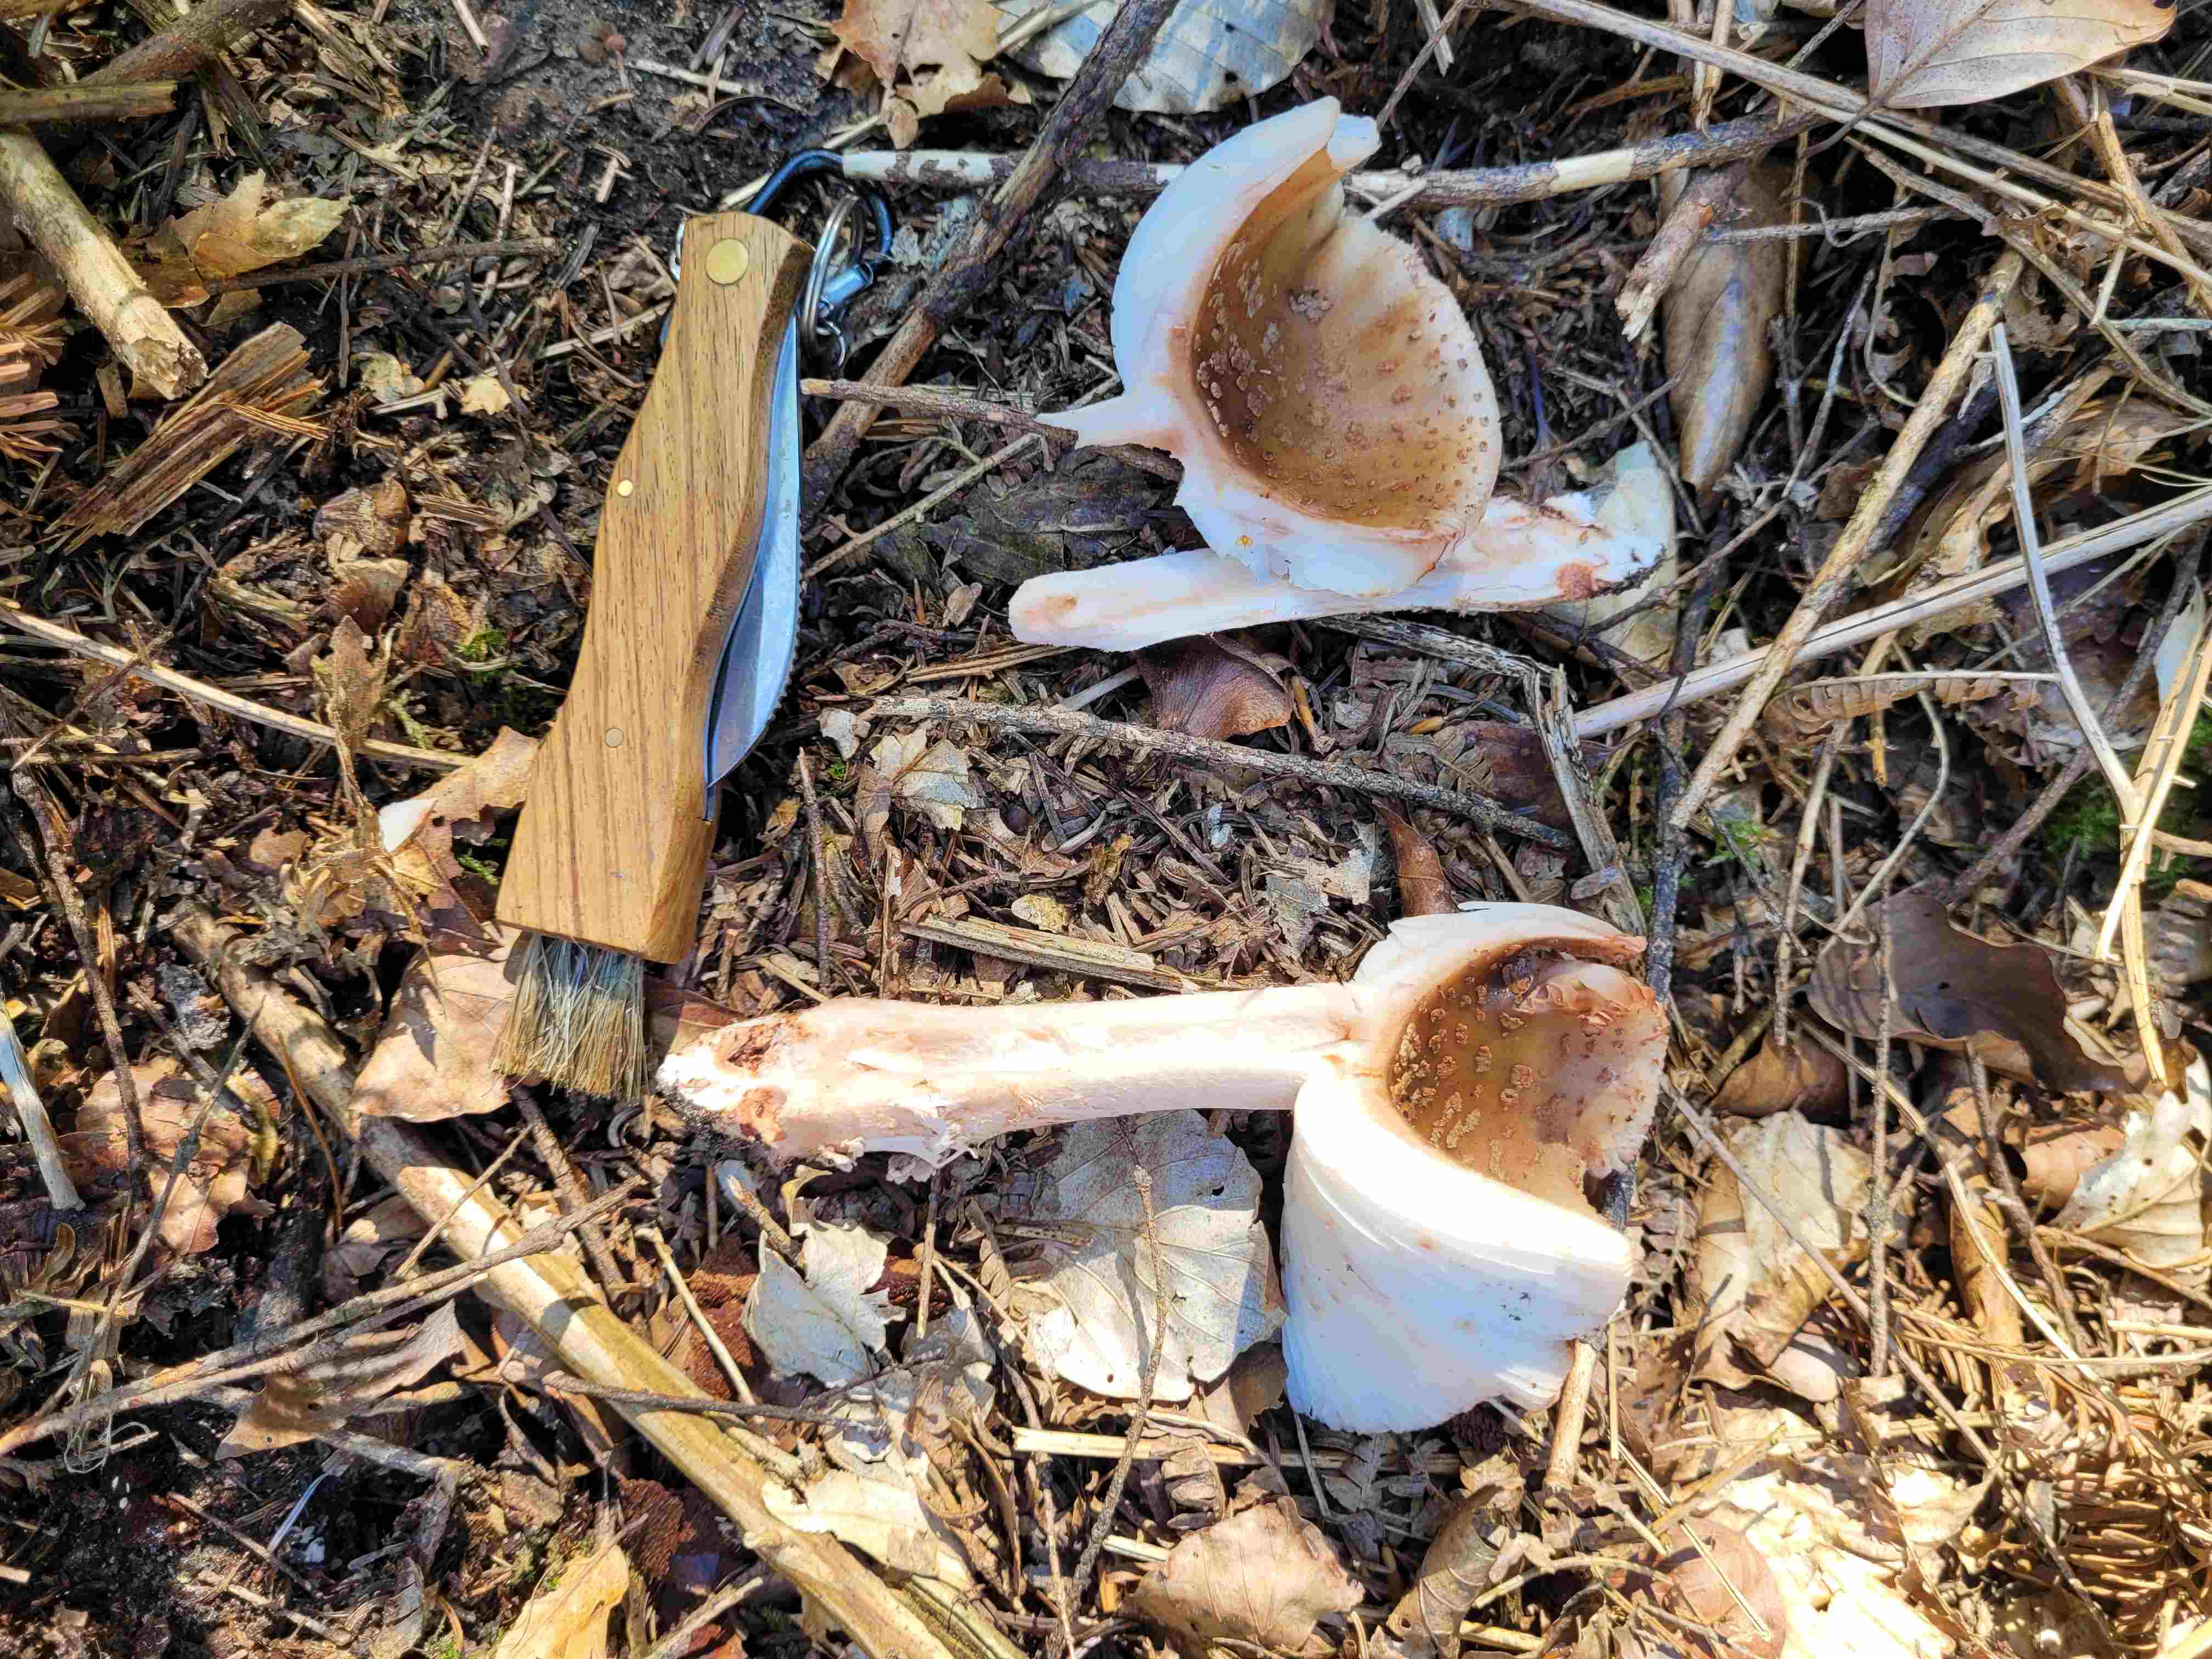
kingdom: Fungi
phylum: Basidiomycota
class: Agaricomycetes
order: Agaricales
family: Amanitaceae
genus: Amanita
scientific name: Amanita rubescens
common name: rødmende fluesvamp
